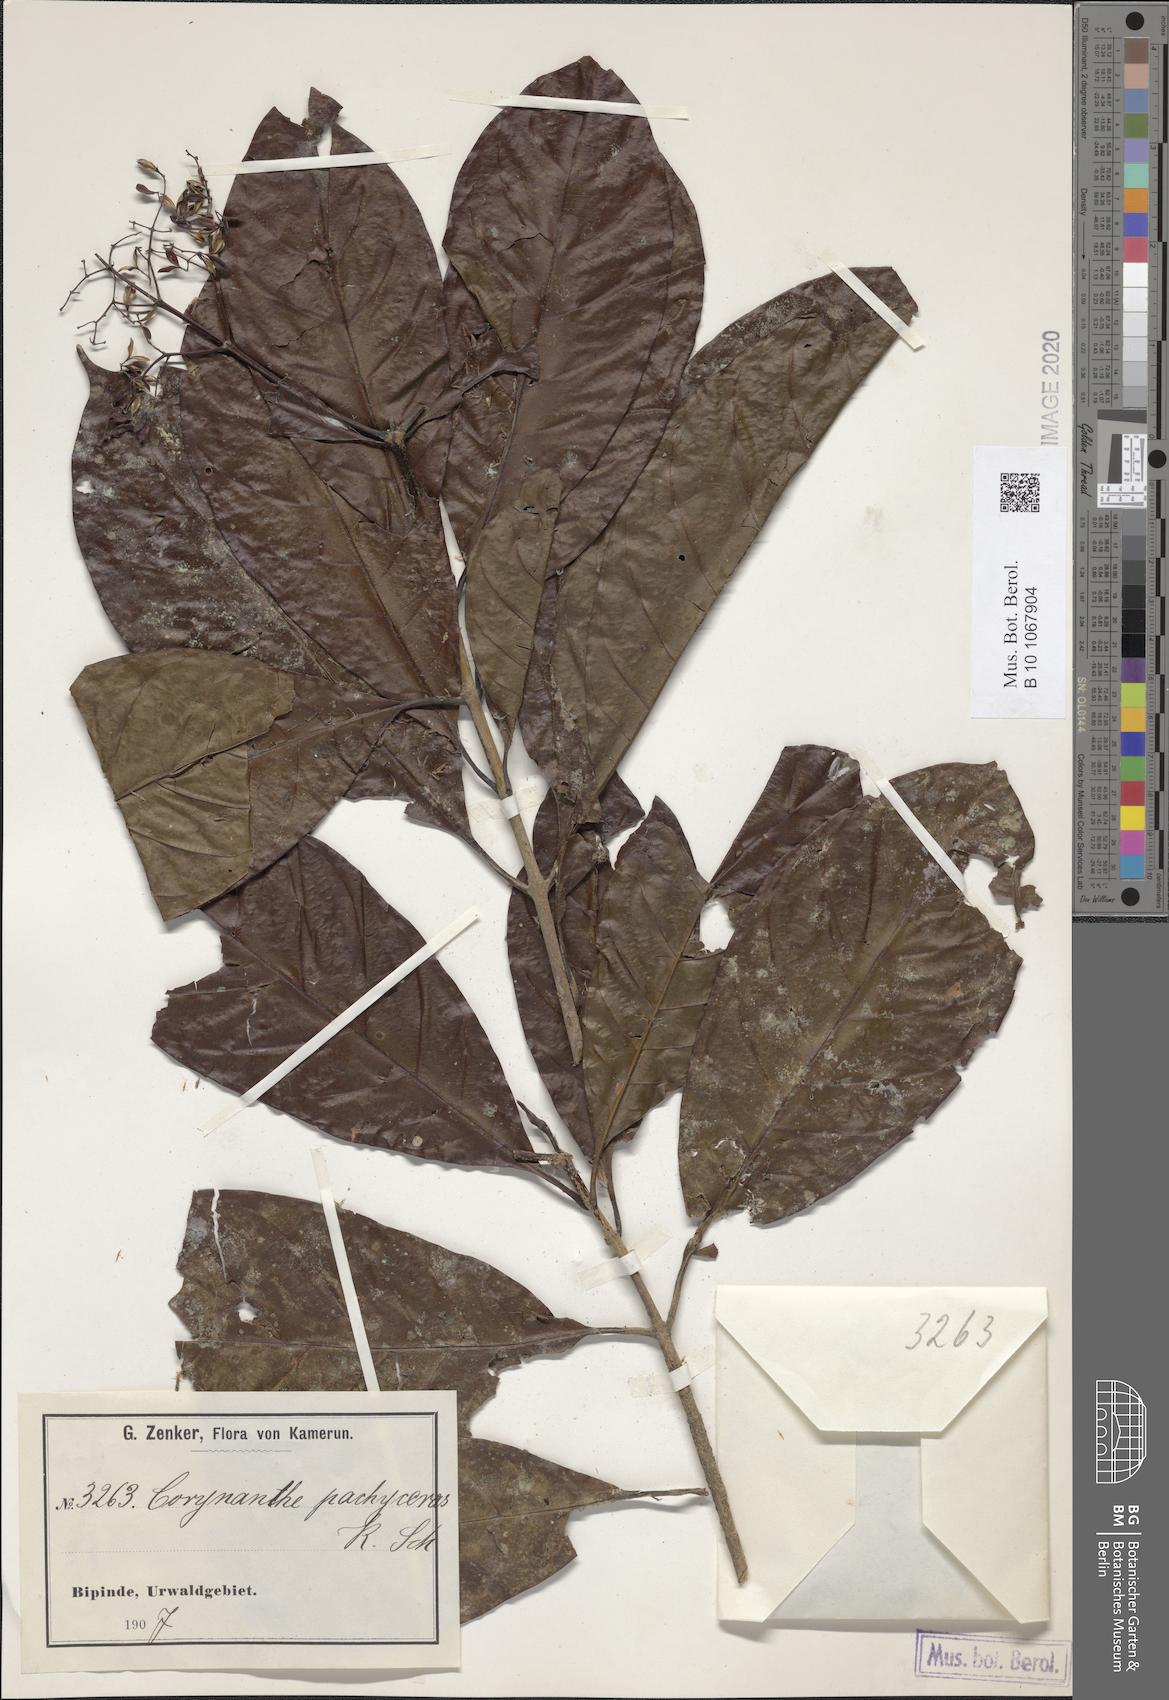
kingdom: Plantae
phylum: Tracheophyta
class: Magnoliopsida
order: Gentianales
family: Rubiaceae
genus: Corynanthe
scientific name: Corynanthe pachyceras
